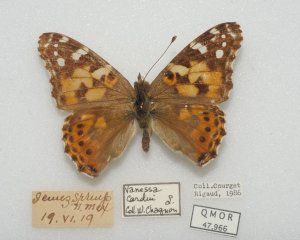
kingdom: Animalia
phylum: Arthropoda
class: Insecta
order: Lepidoptera
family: Nymphalidae
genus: Vanessa
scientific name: Vanessa cardui
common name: Painted Lady
